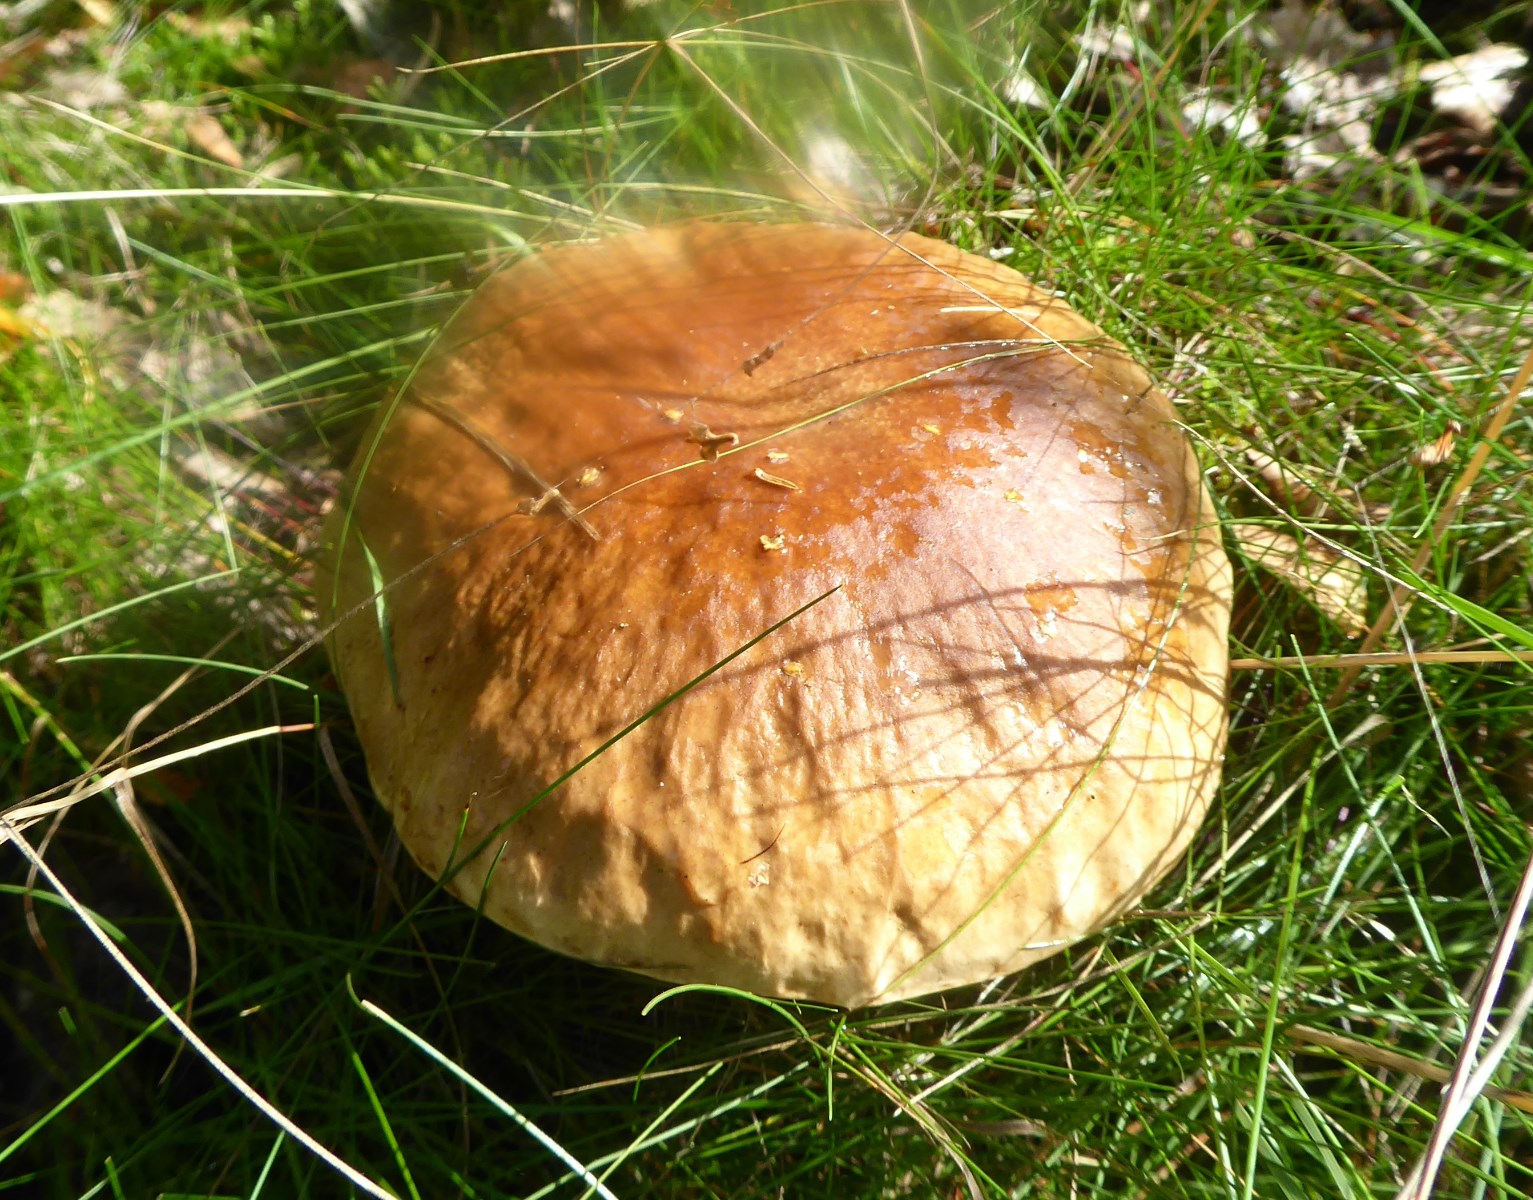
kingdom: Fungi
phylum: Basidiomycota
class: Agaricomycetes
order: Boletales
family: Boletaceae
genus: Boletus
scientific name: Boletus edulis
